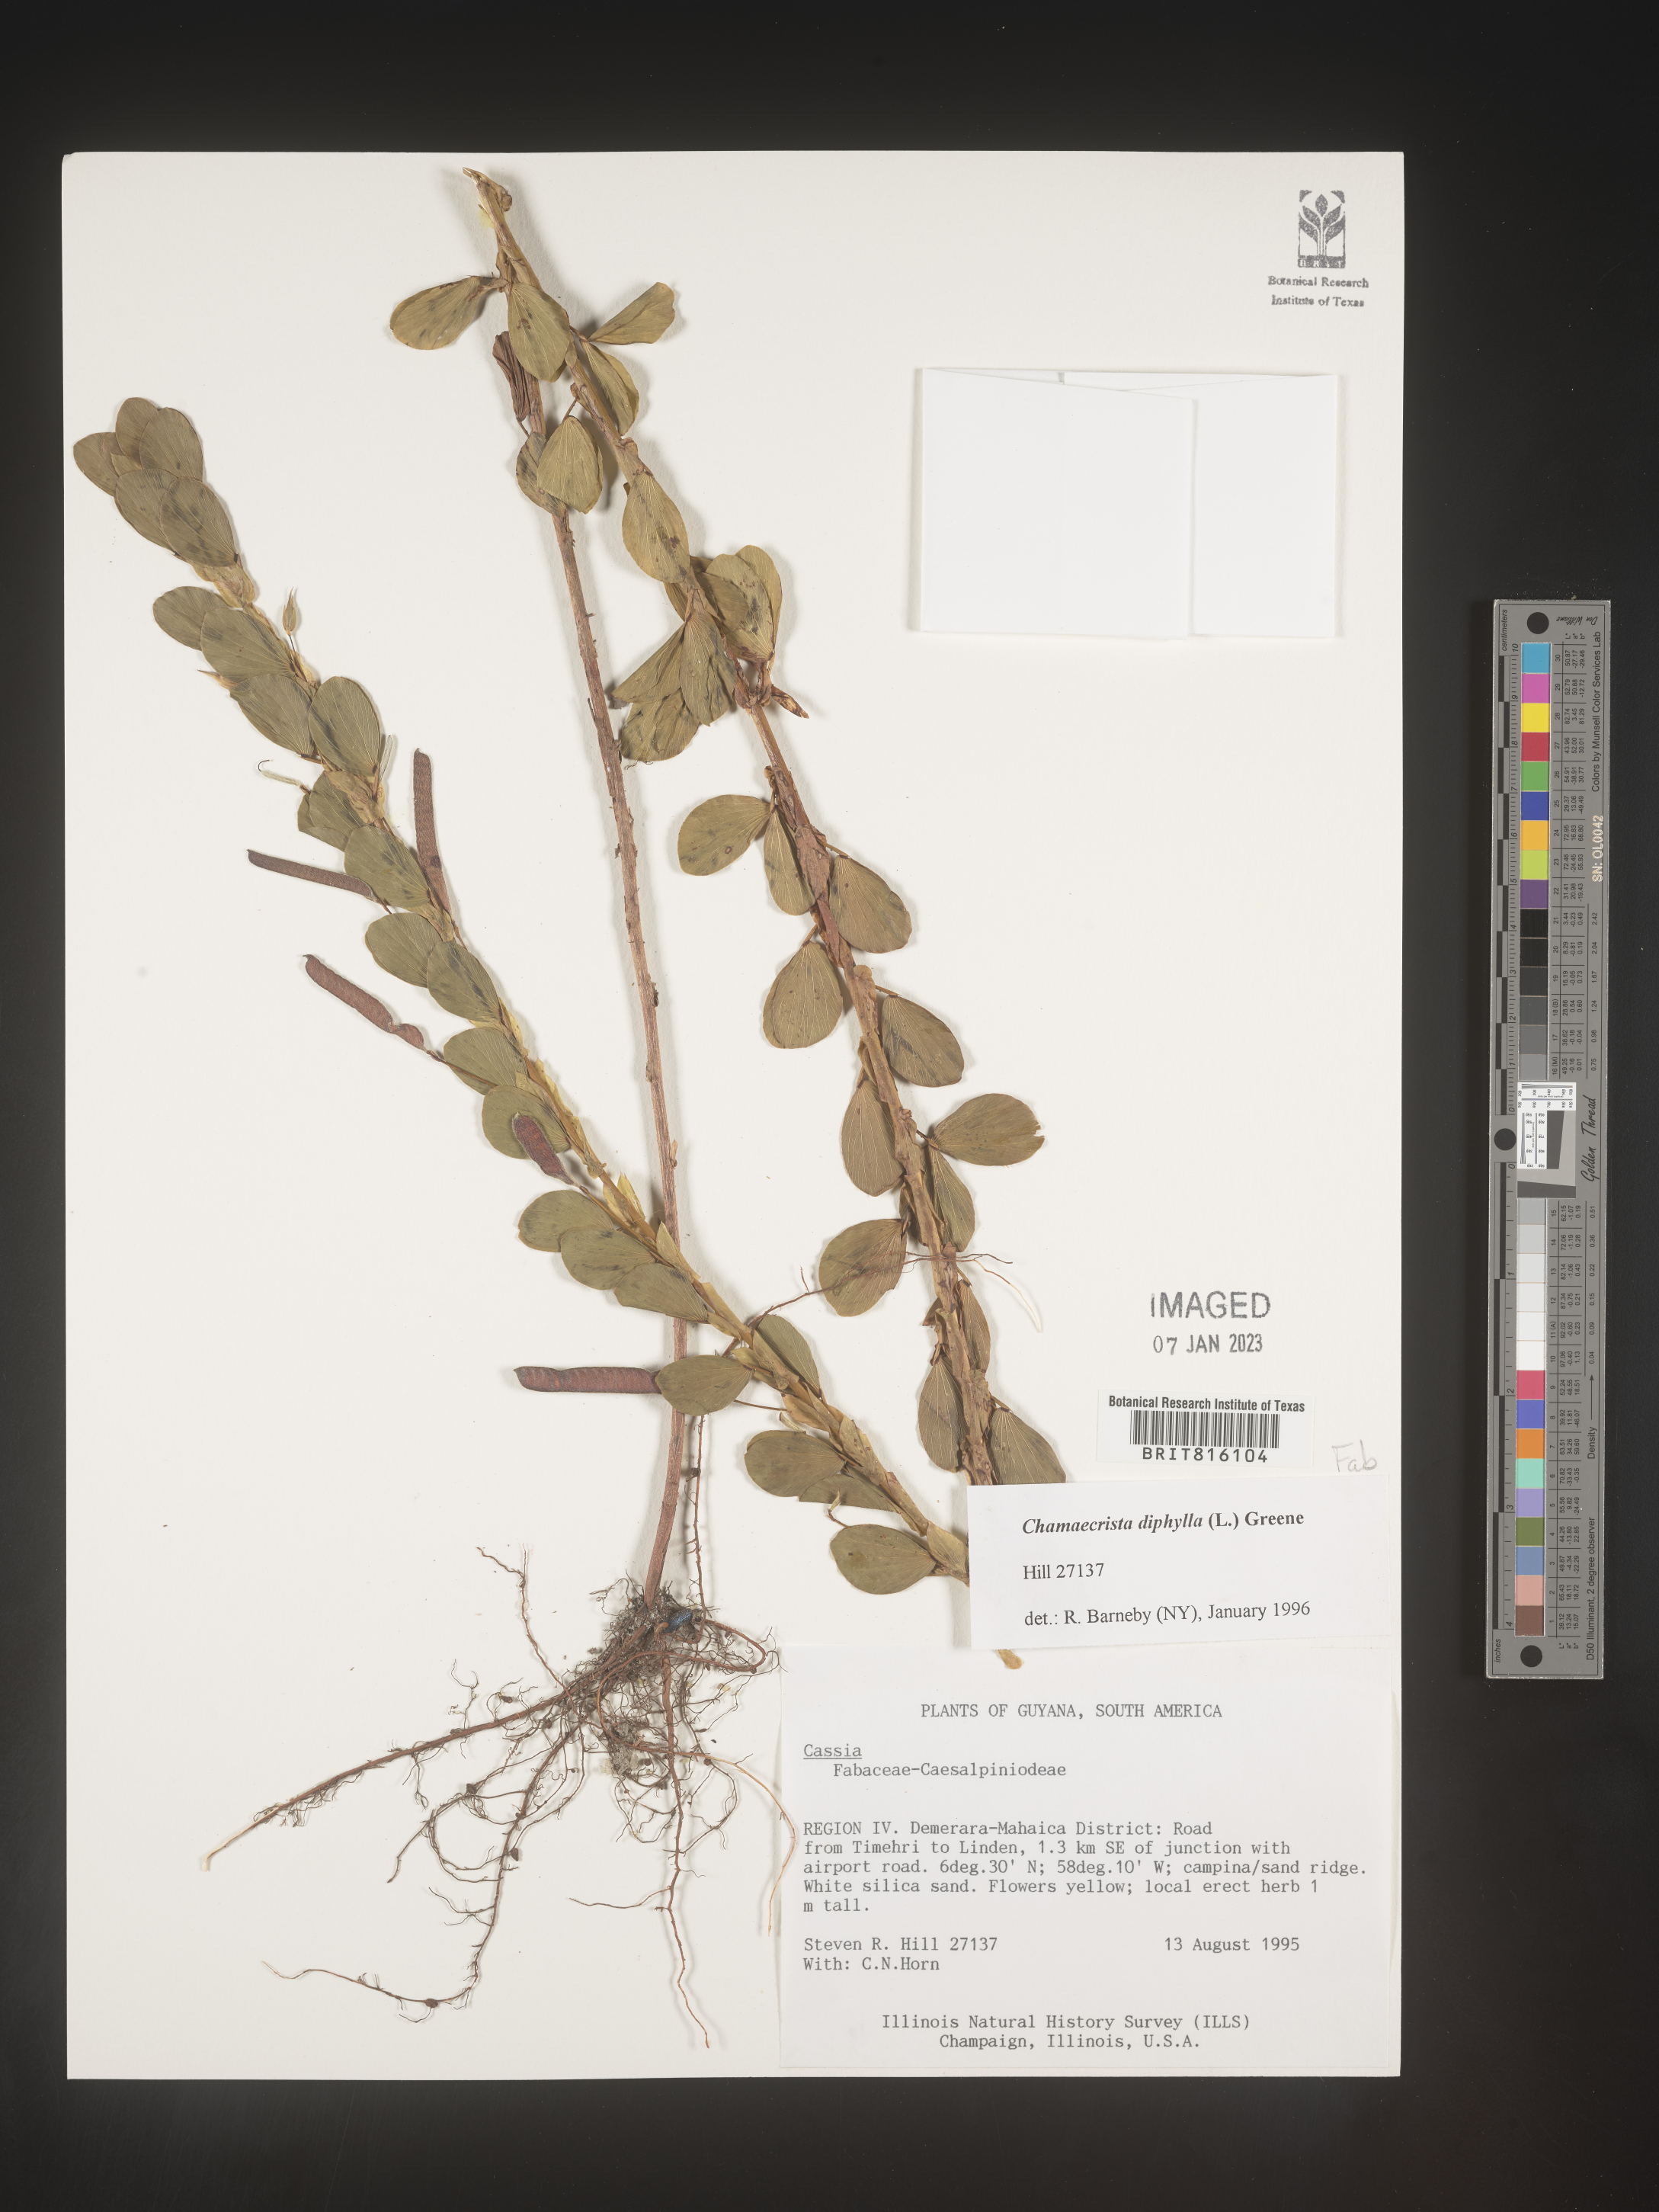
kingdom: Plantae
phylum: Tracheophyta
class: Magnoliopsida
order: Fabales
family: Fabaceae
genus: Chamaecrista
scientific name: Chamaecrista
